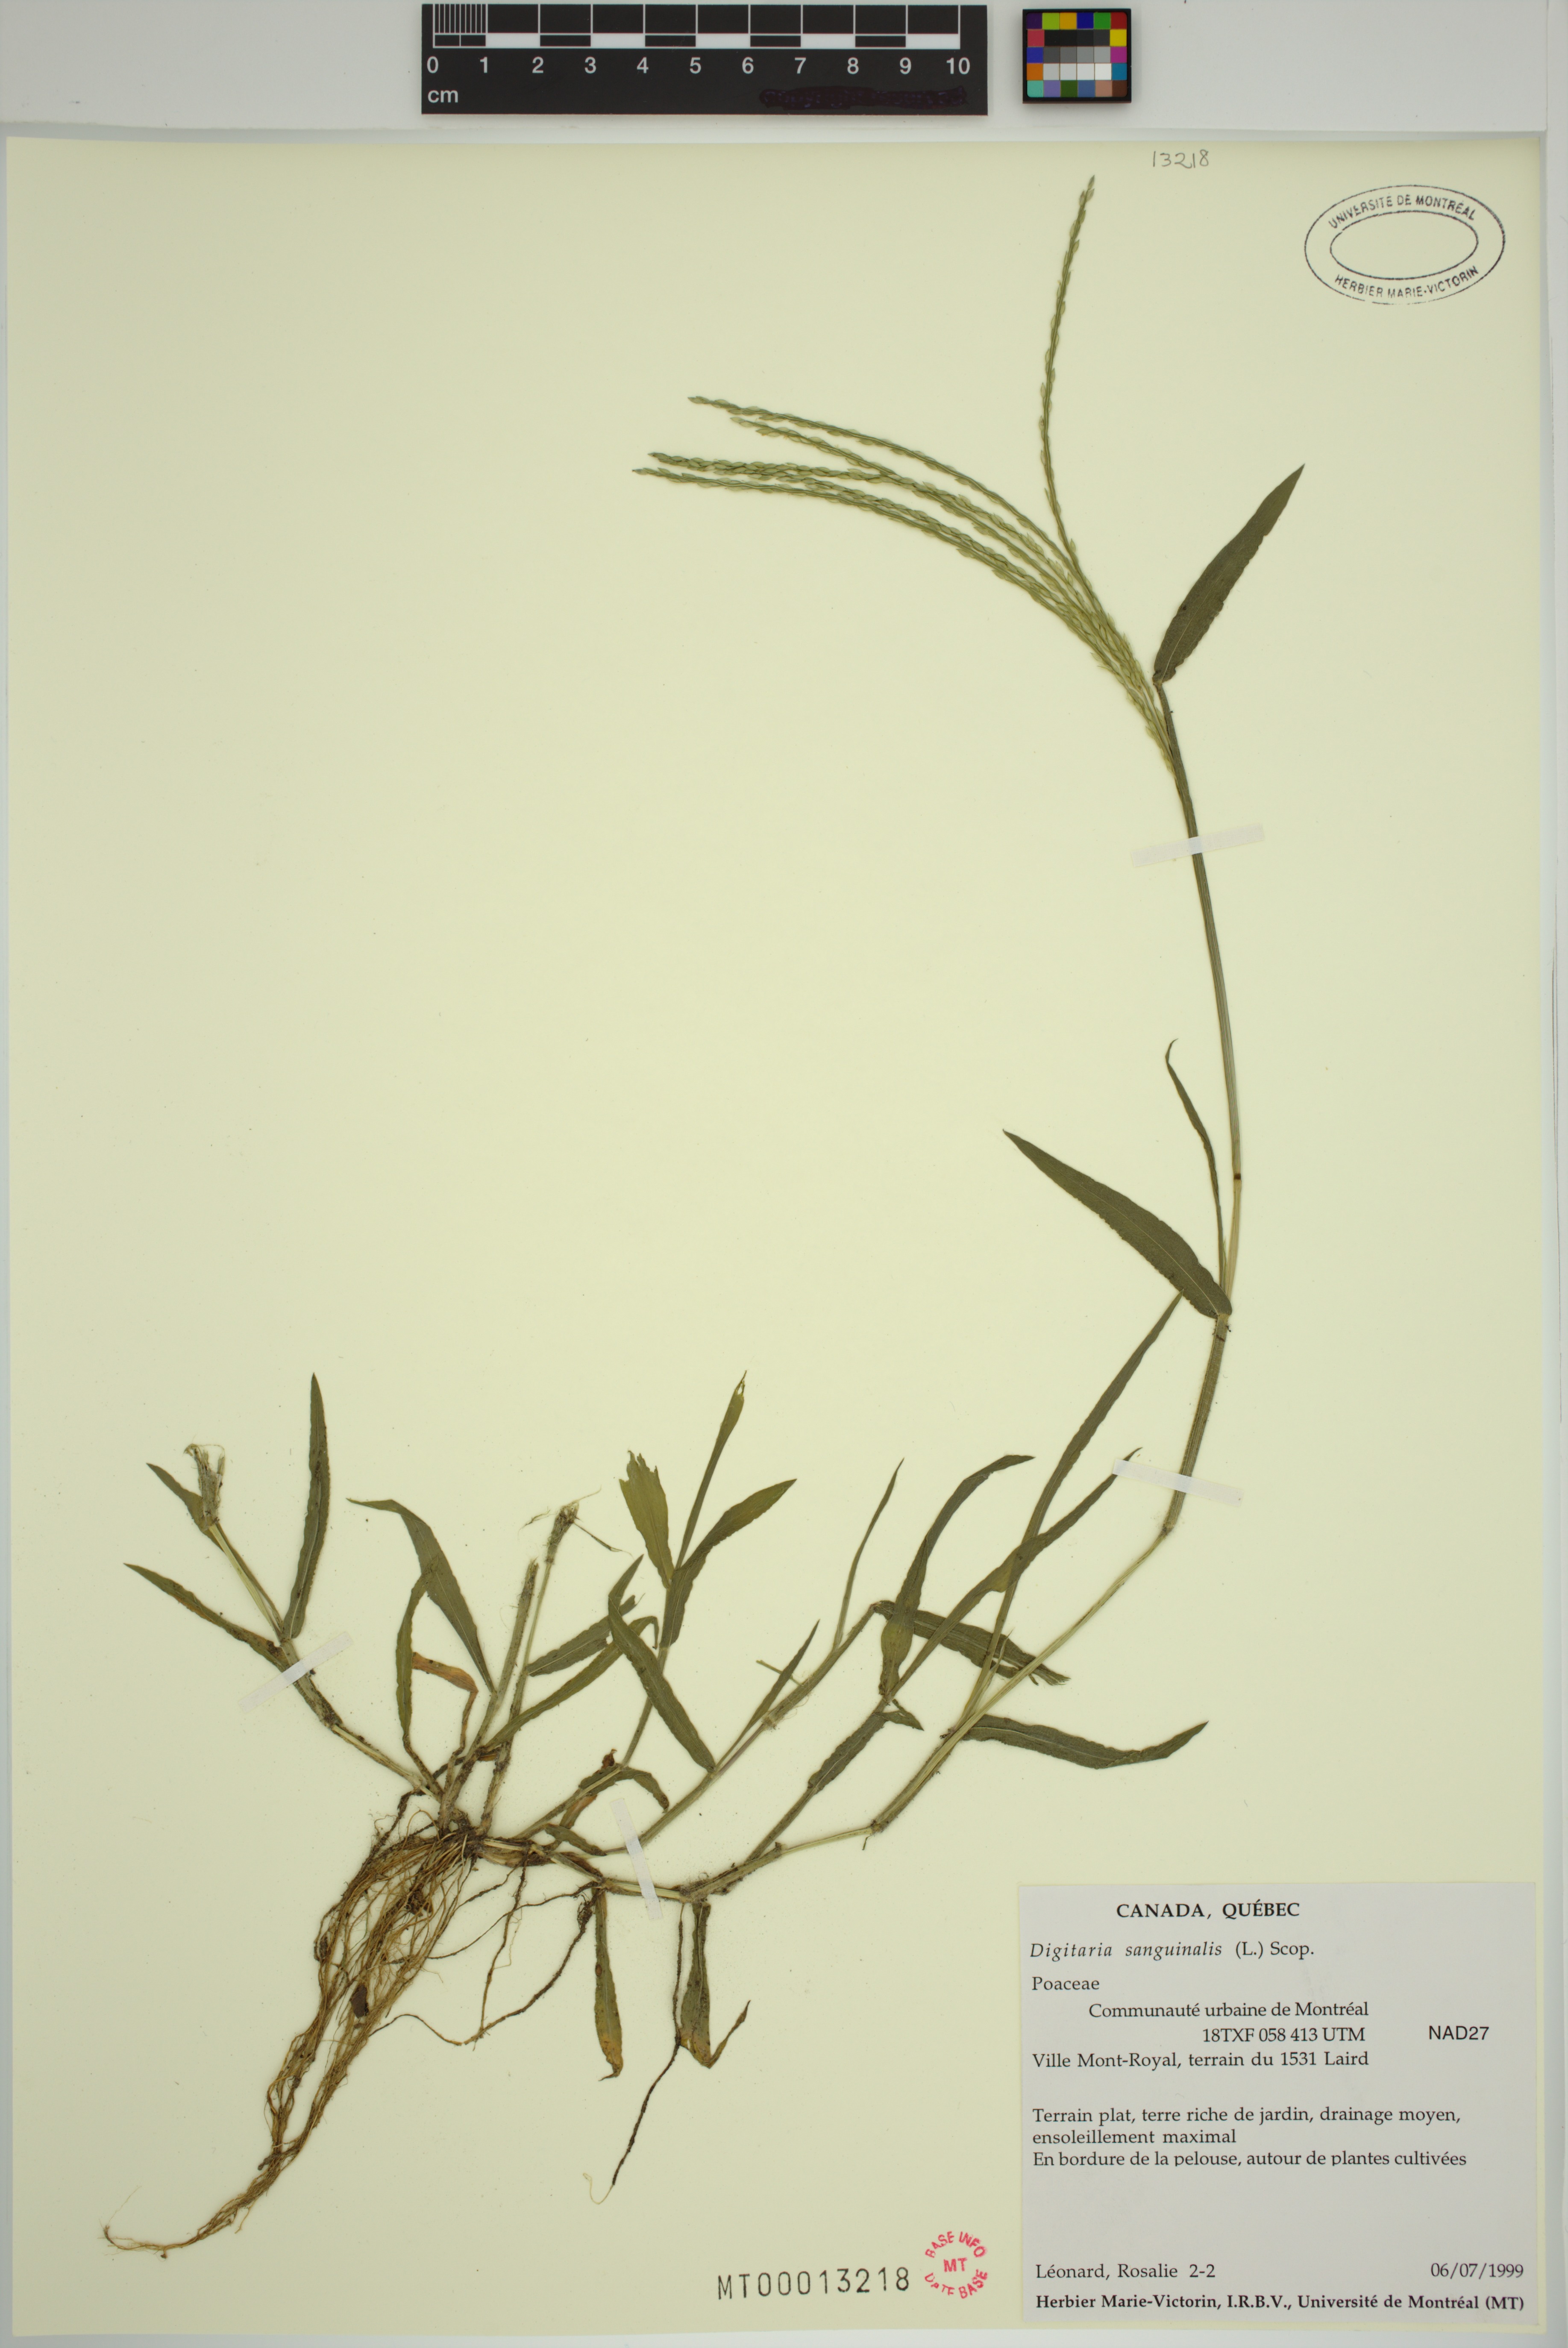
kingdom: Plantae
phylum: Tracheophyta
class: Liliopsida
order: Poales
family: Poaceae
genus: Digitaria
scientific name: Digitaria sanguinalis
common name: Hairy crabgrass
